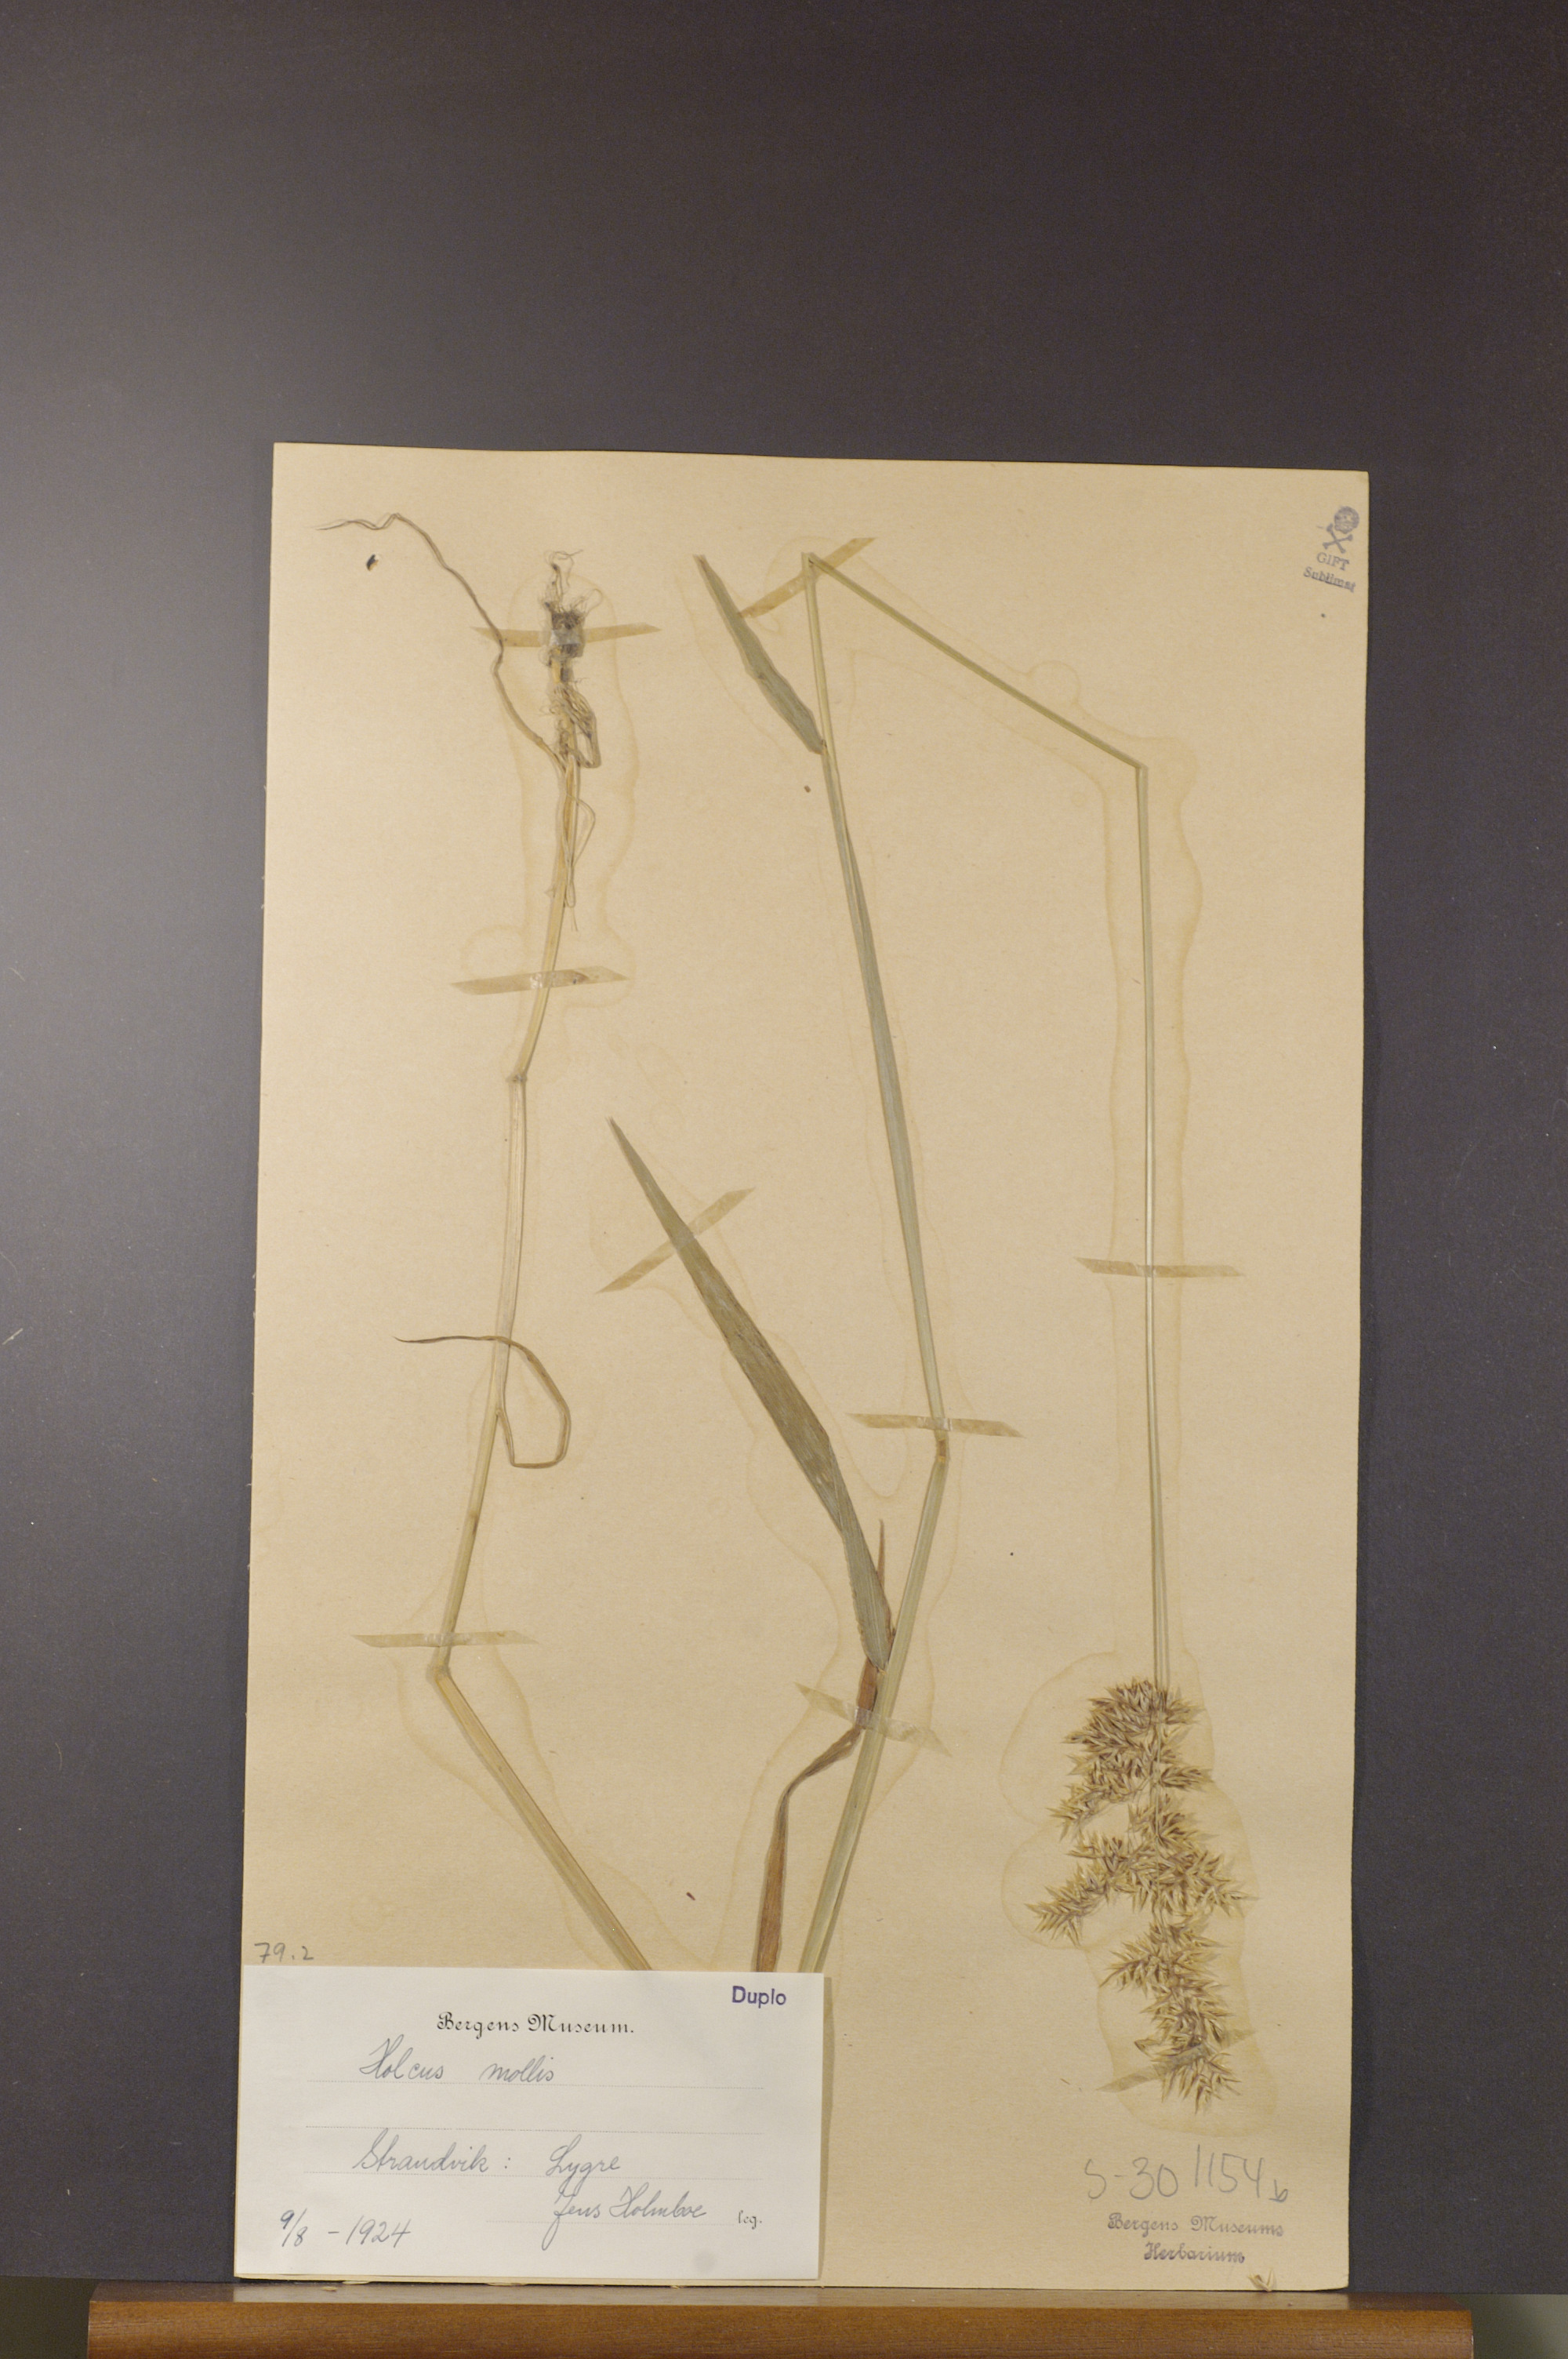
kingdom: Plantae
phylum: Tracheophyta
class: Liliopsida
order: Poales
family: Poaceae
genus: Holcus
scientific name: Holcus mollis
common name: Creeping velvetgrass
